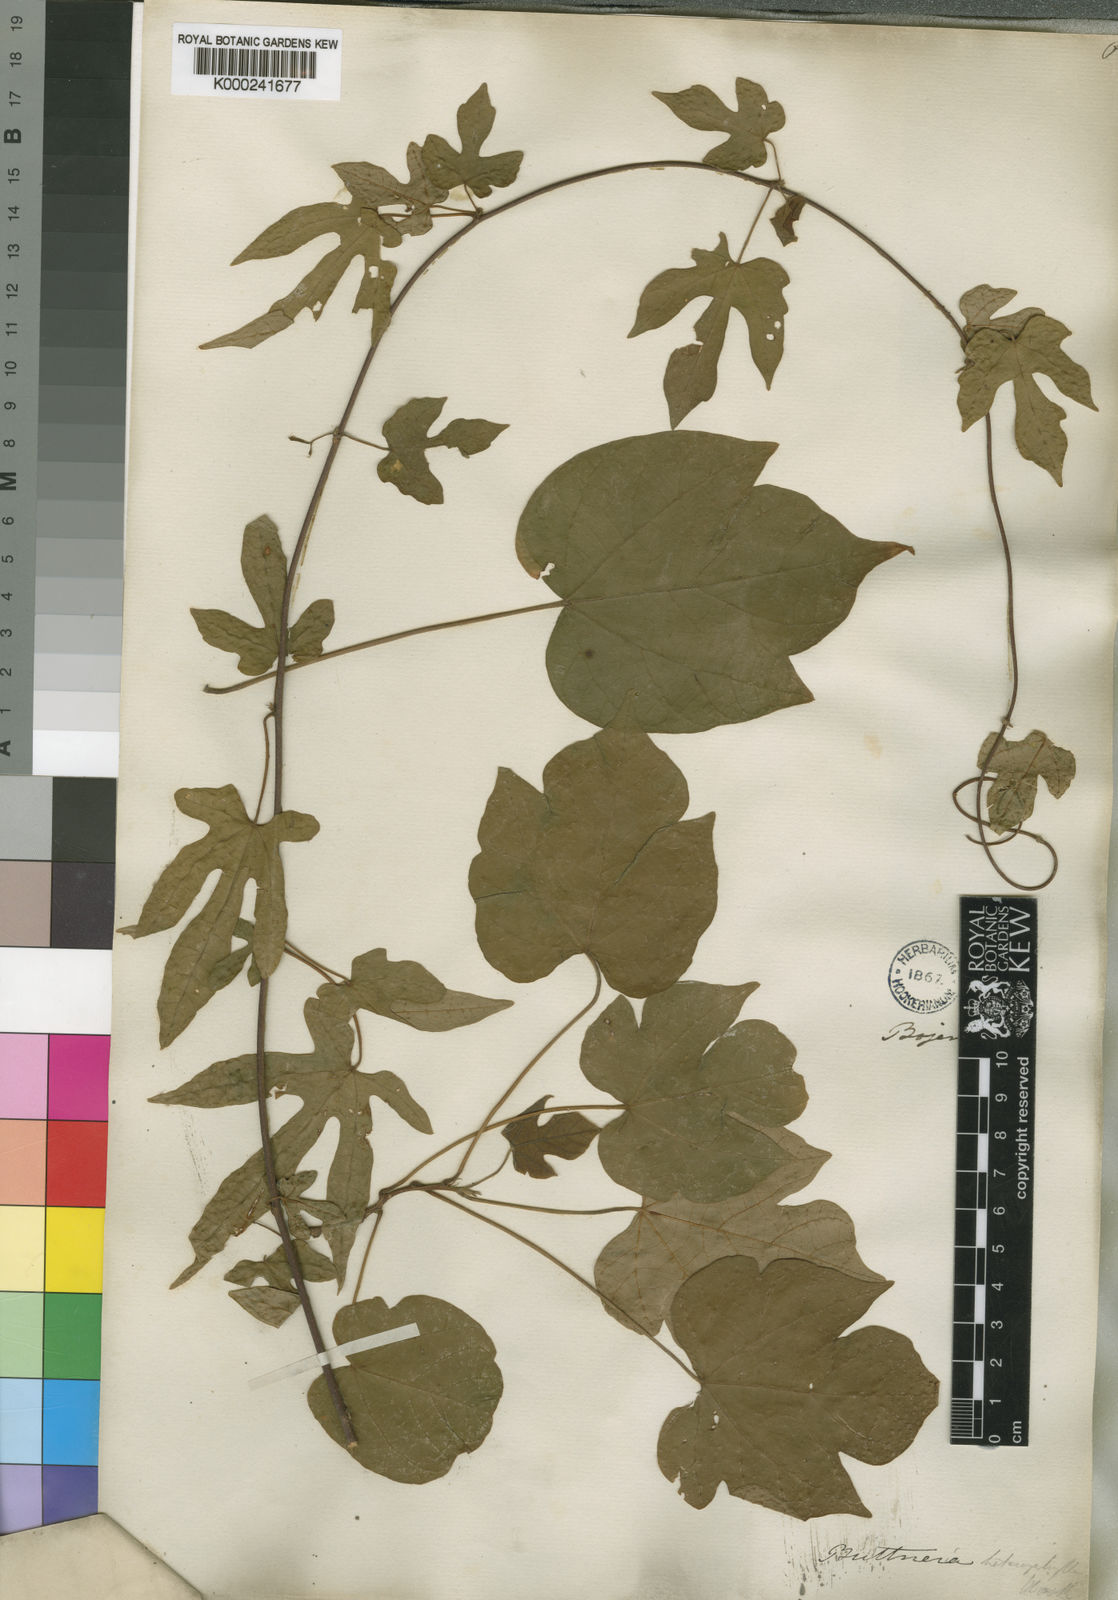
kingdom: Plantae
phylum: Tracheophyta
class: Magnoliopsida
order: Malvales
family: Malvaceae
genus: Byttneria
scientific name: Byttneria heterophylla
